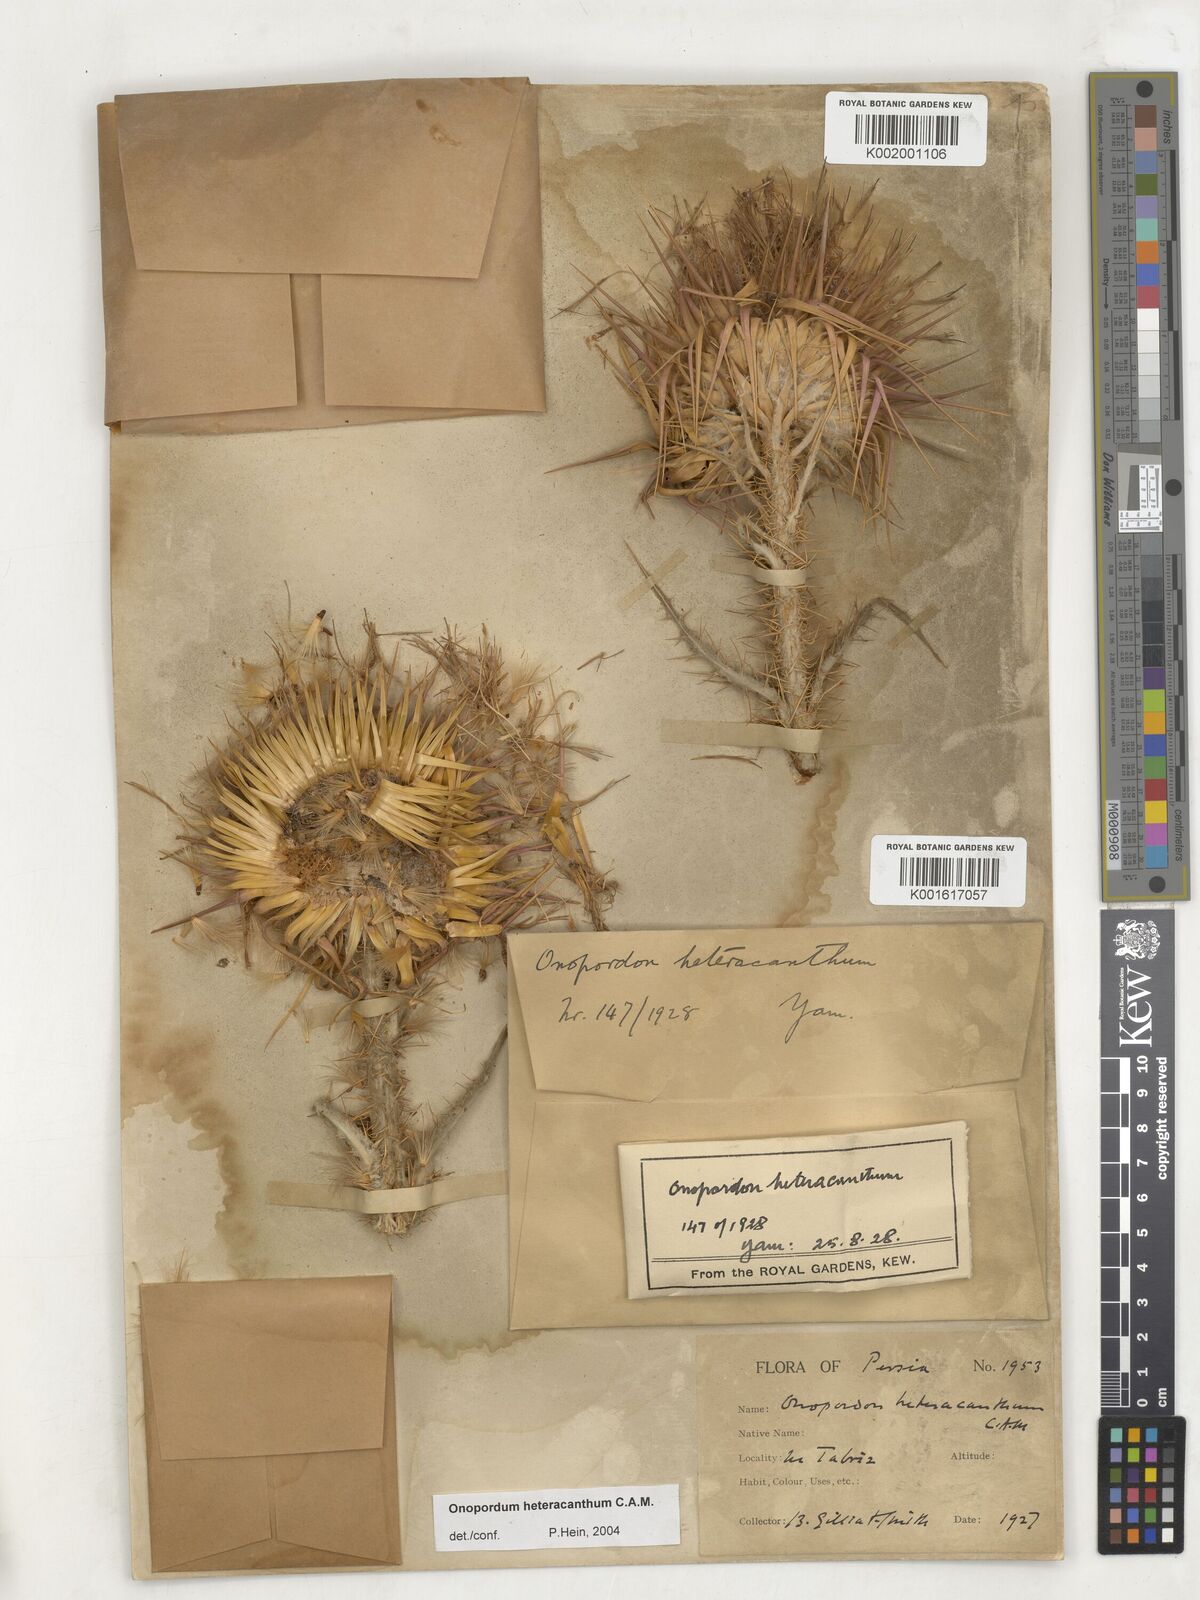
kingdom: Plantae
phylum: Tracheophyta
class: Magnoliopsida
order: Asterales
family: Asteraceae
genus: Onopordum
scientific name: Onopordum heteracanthum
